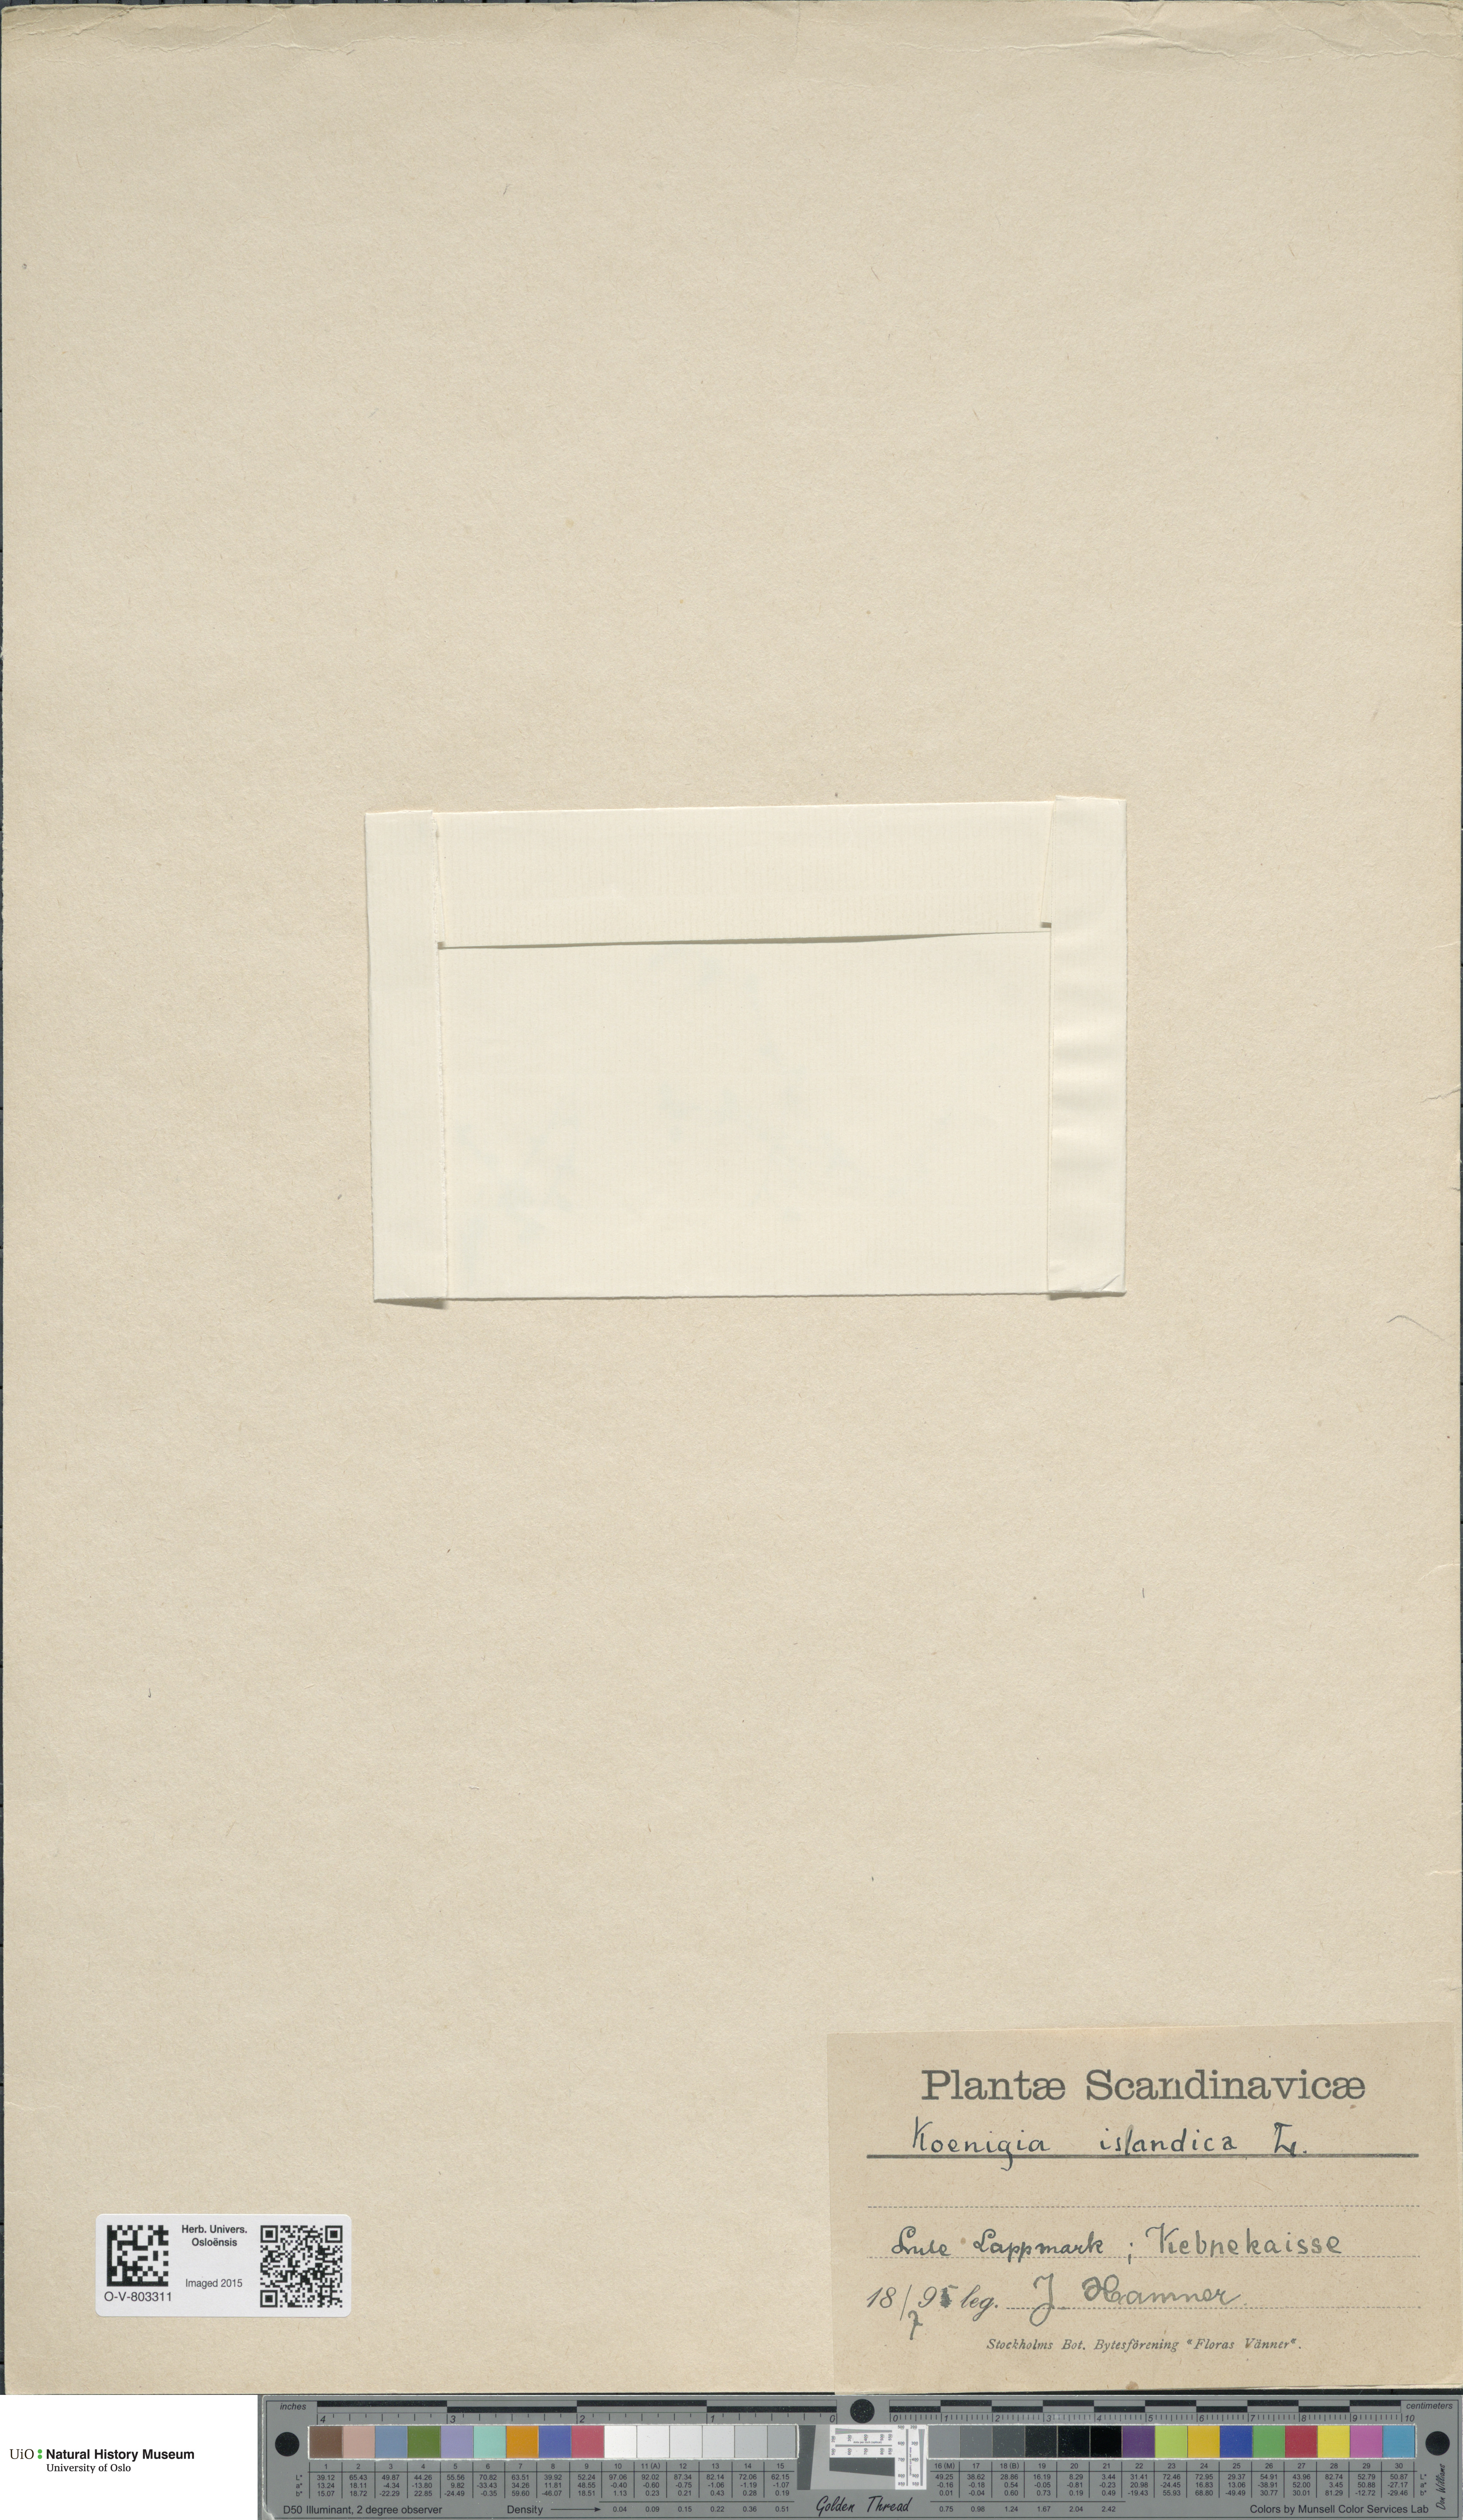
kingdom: Plantae
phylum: Tracheophyta
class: Magnoliopsida
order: Caryophyllales
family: Polygonaceae
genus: Koenigia
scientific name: Koenigia islandica
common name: Iceland-purslane
